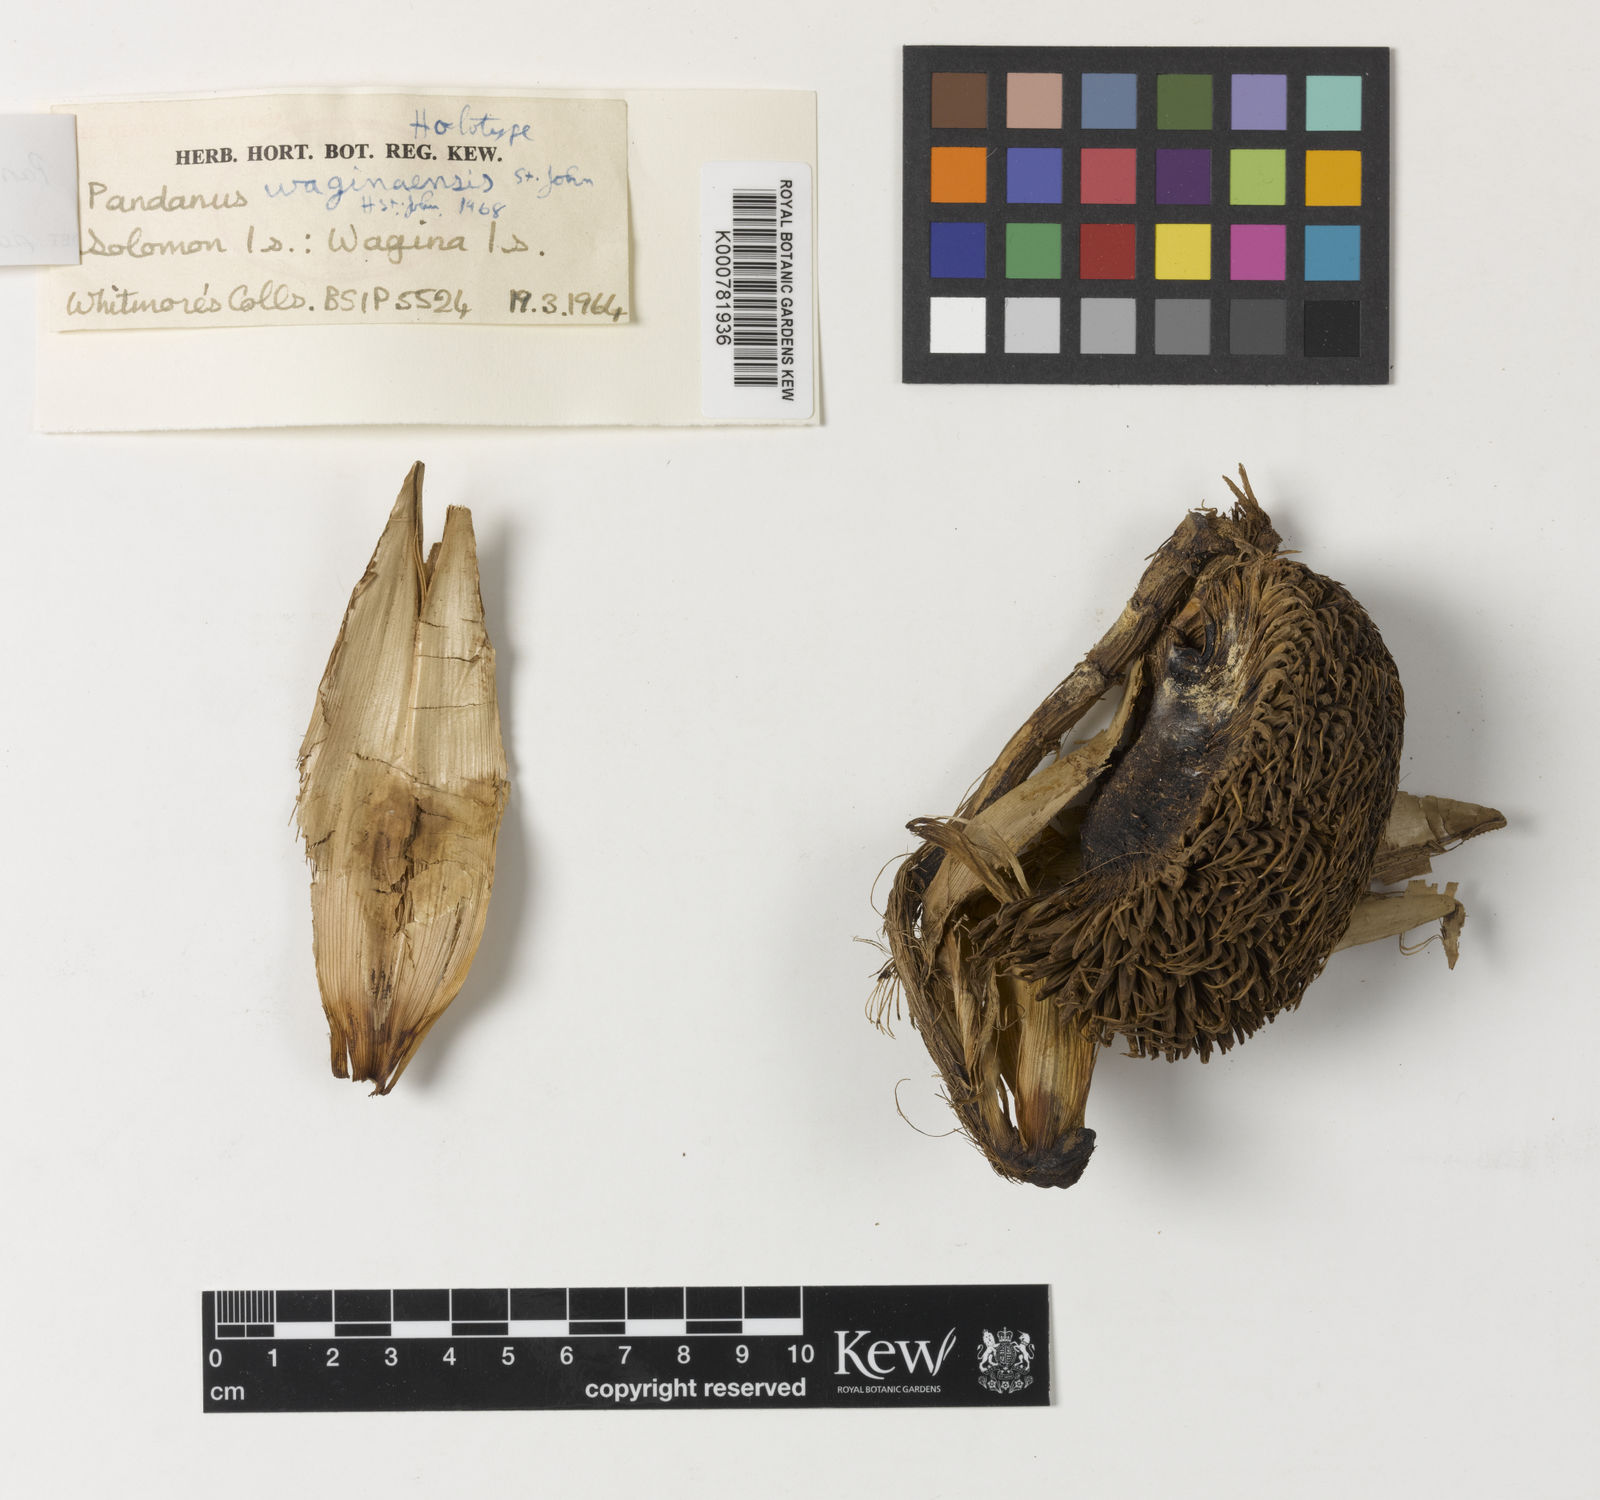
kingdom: Plantae
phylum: Tracheophyta
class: Liliopsida
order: Pandanales
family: Pandanaceae
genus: Benstonea
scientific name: Benstonea stenocarpa
